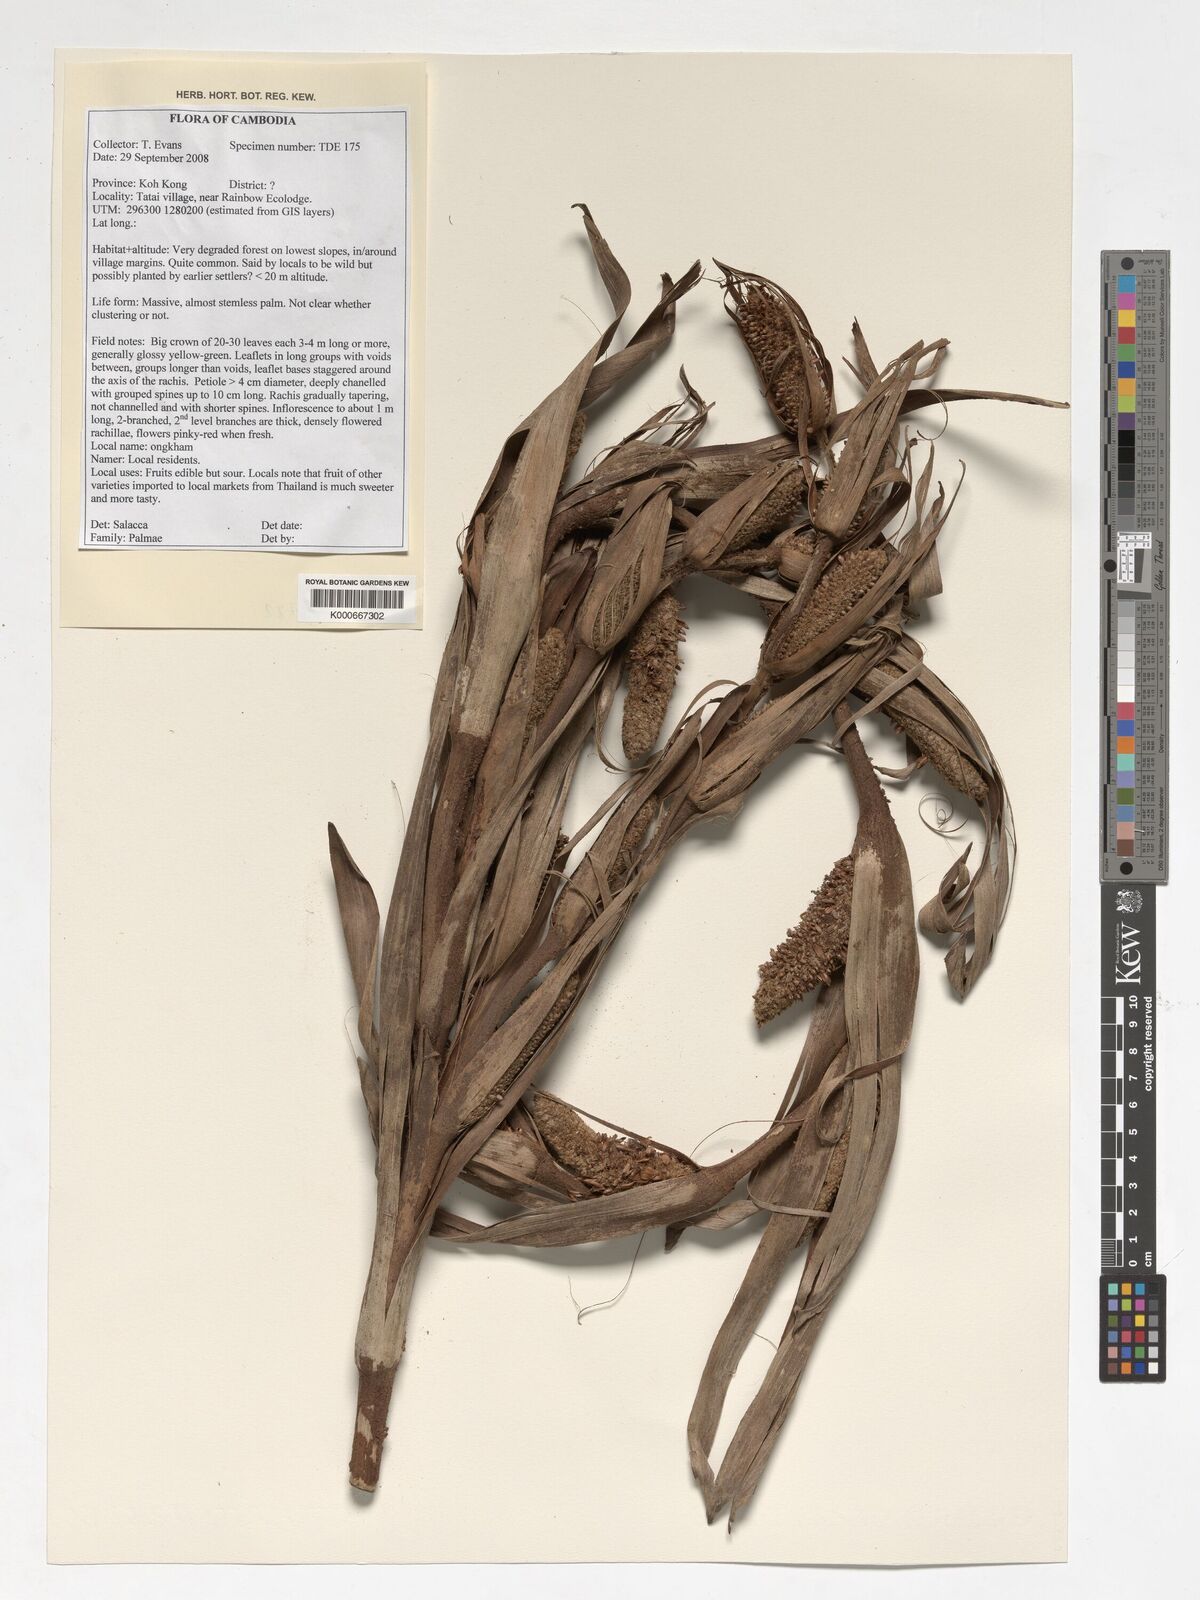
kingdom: Plantae
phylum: Tracheophyta
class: Liliopsida
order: Arecales
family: Arecaceae
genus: Salacca
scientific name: Salacca
